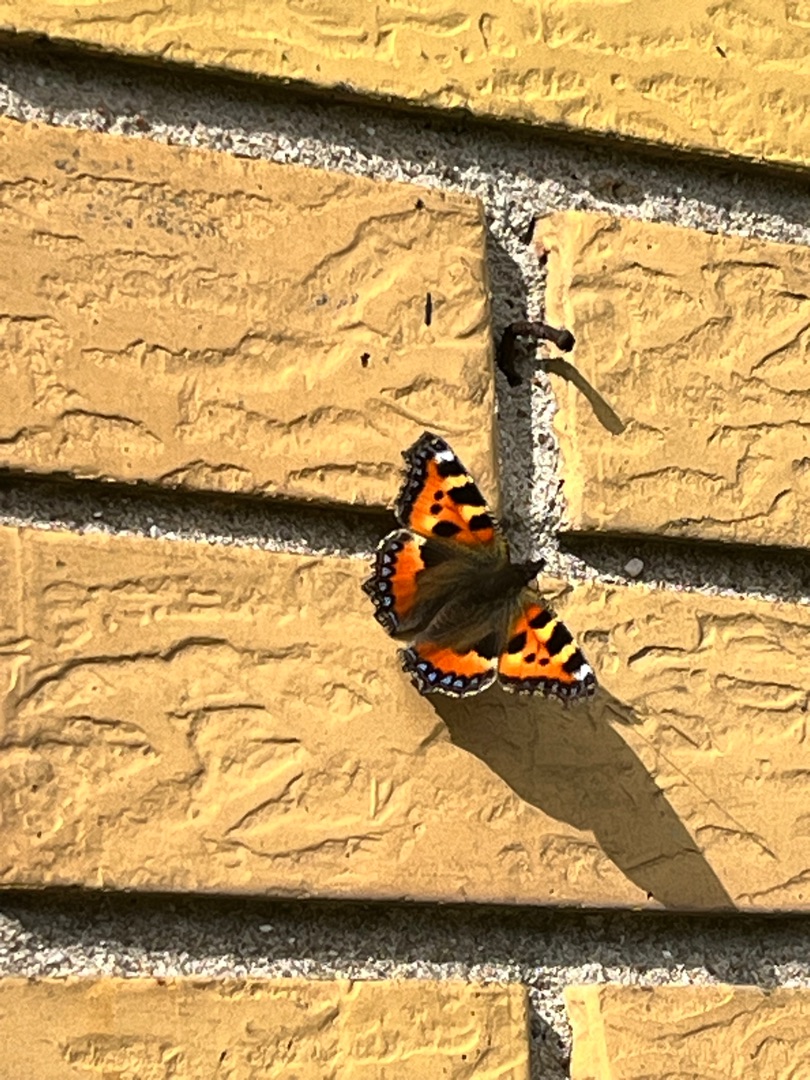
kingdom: Animalia
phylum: Arthropoda
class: Insecta
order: Lepidoptera
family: Nymphalidae
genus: Aglais
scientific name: Aglais urticae
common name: Nældens takvinge
